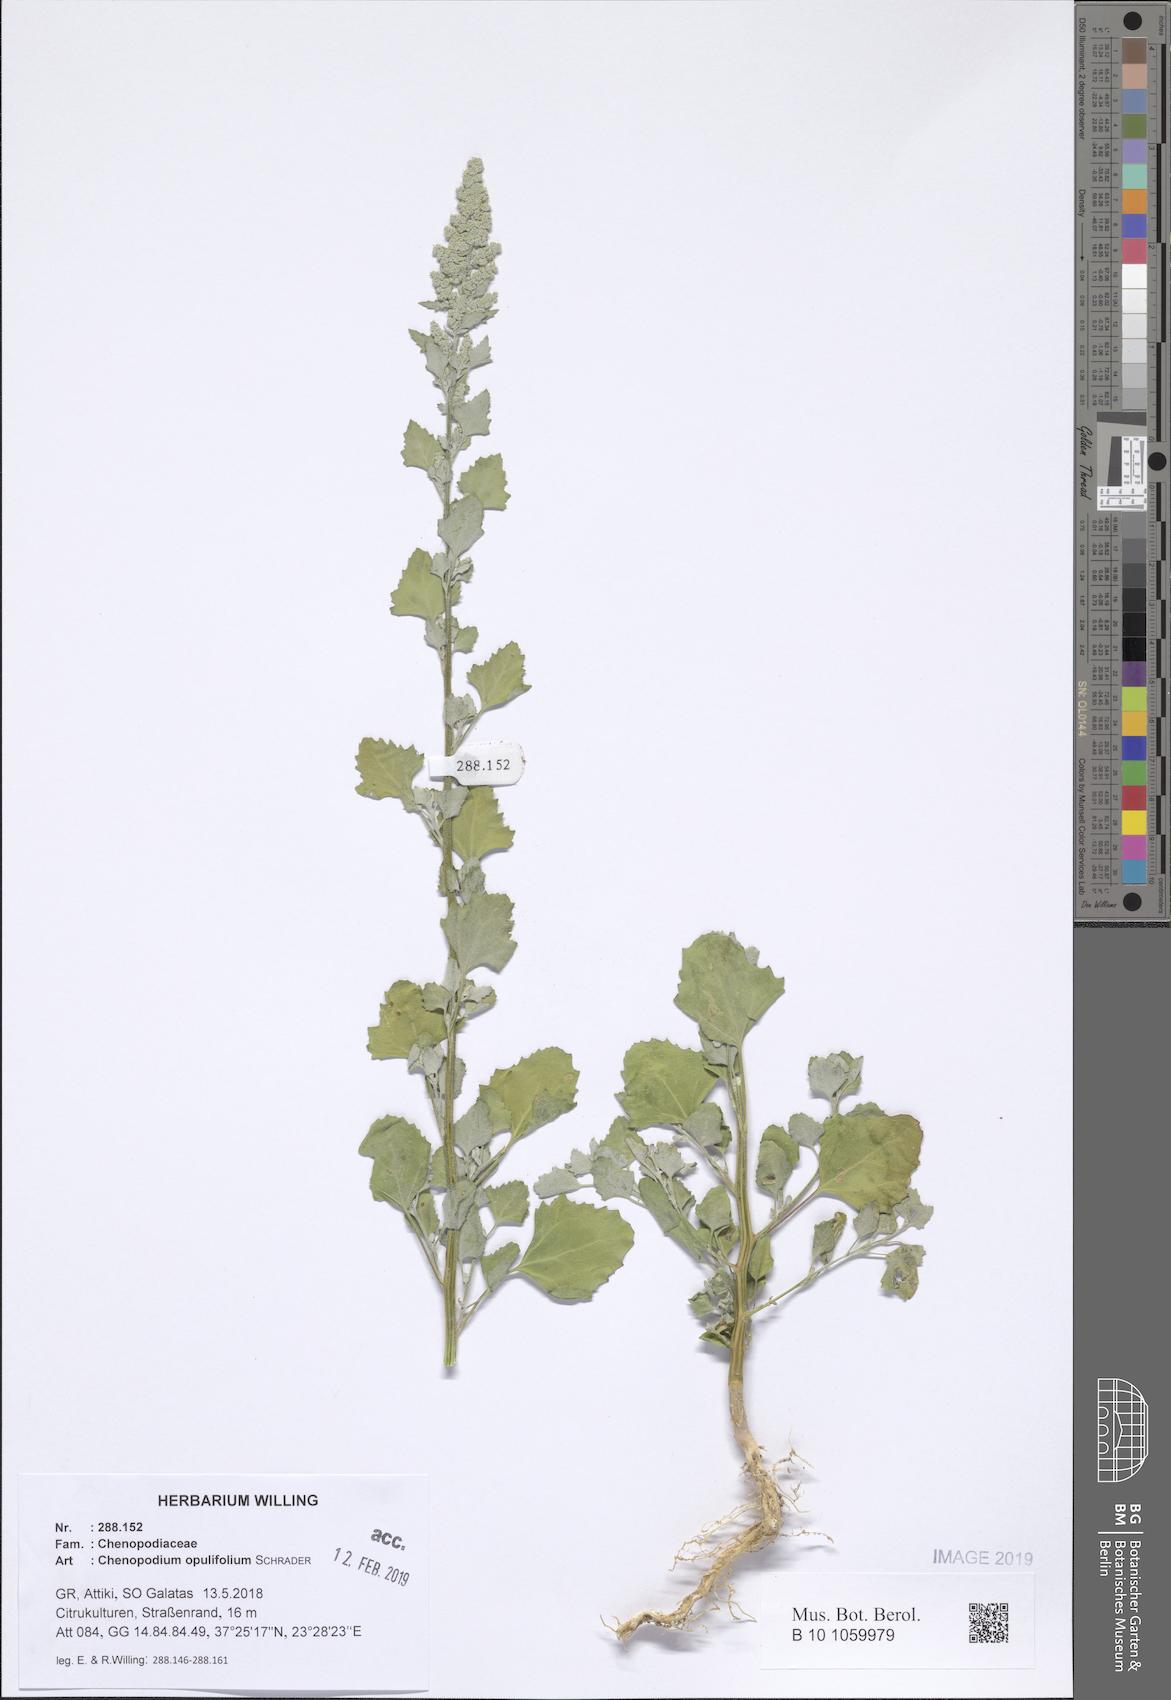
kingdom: Plantae
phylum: Tracheophyta
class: Magnoliopsida
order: Caryophyllales
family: Amaranthaceae
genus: Chenopodium
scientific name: Chenopodium album
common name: Fat-hen
